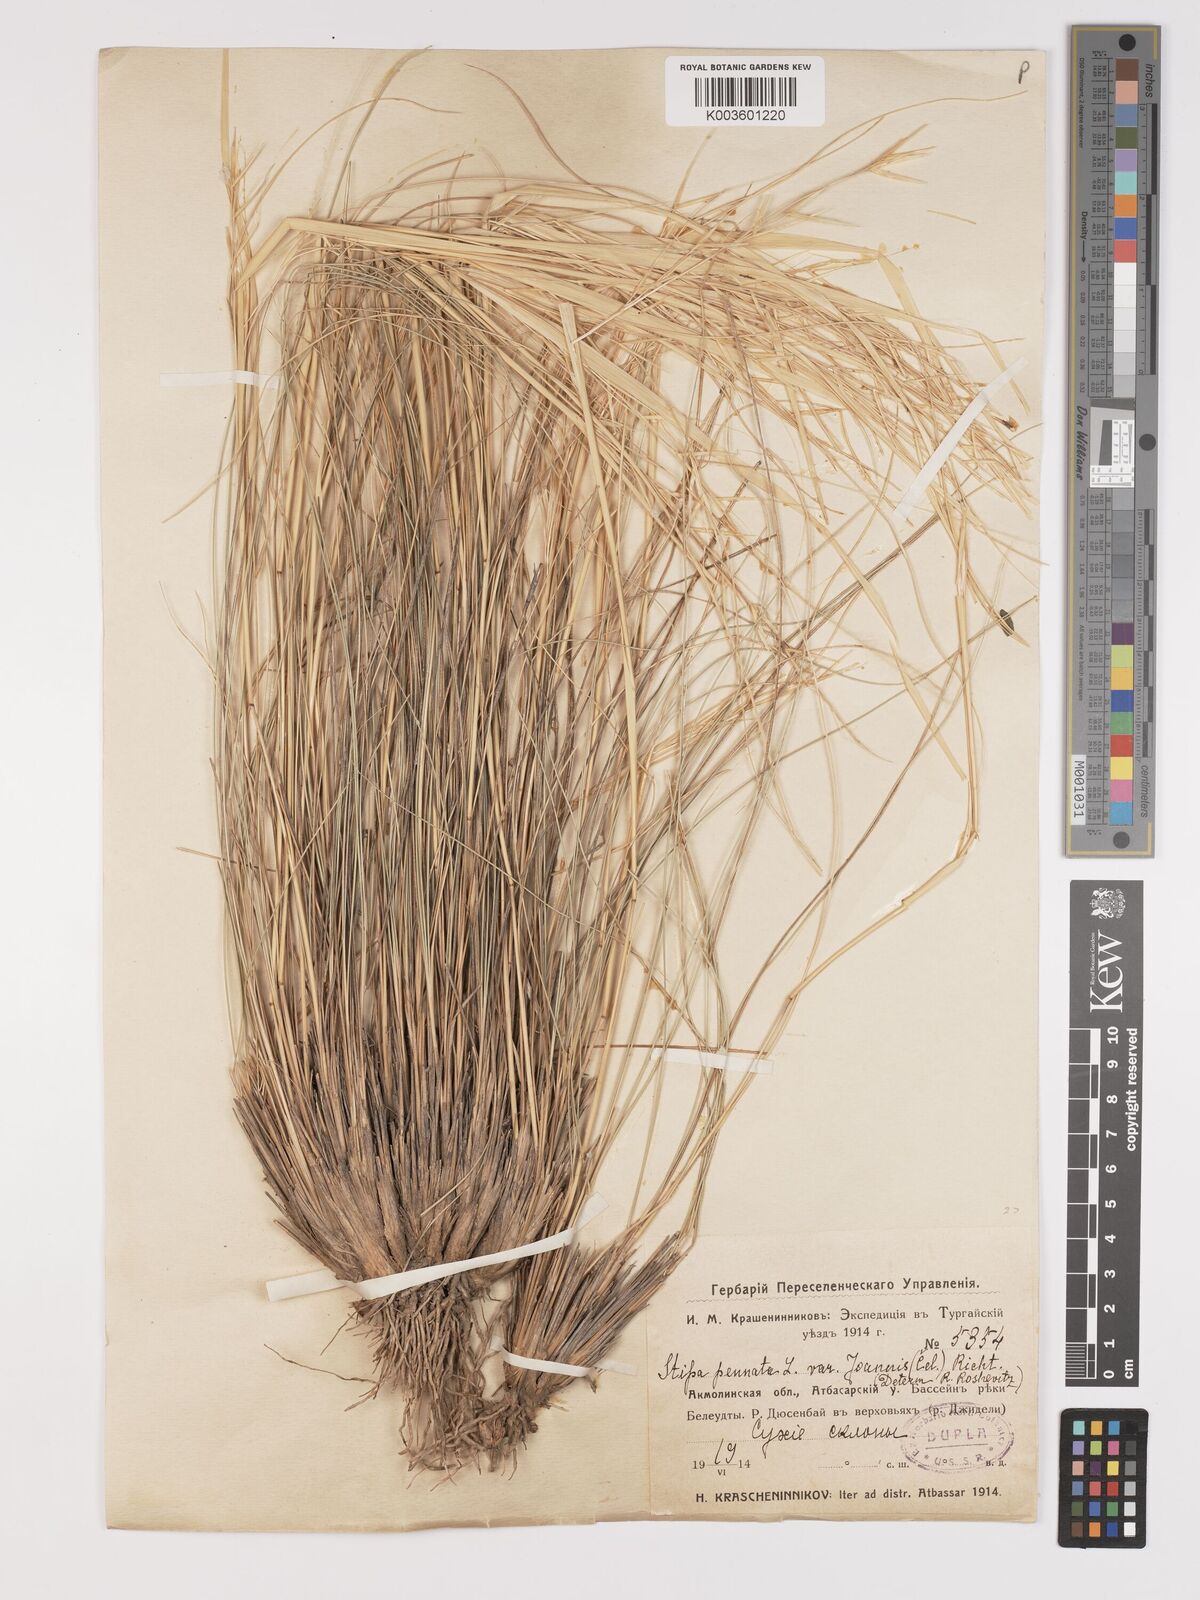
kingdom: Plantae
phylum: Tracheophyta
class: Liliopsida
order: Poales
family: Poaceae
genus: Stipa
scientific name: Stipa pennata
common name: European feather grass
